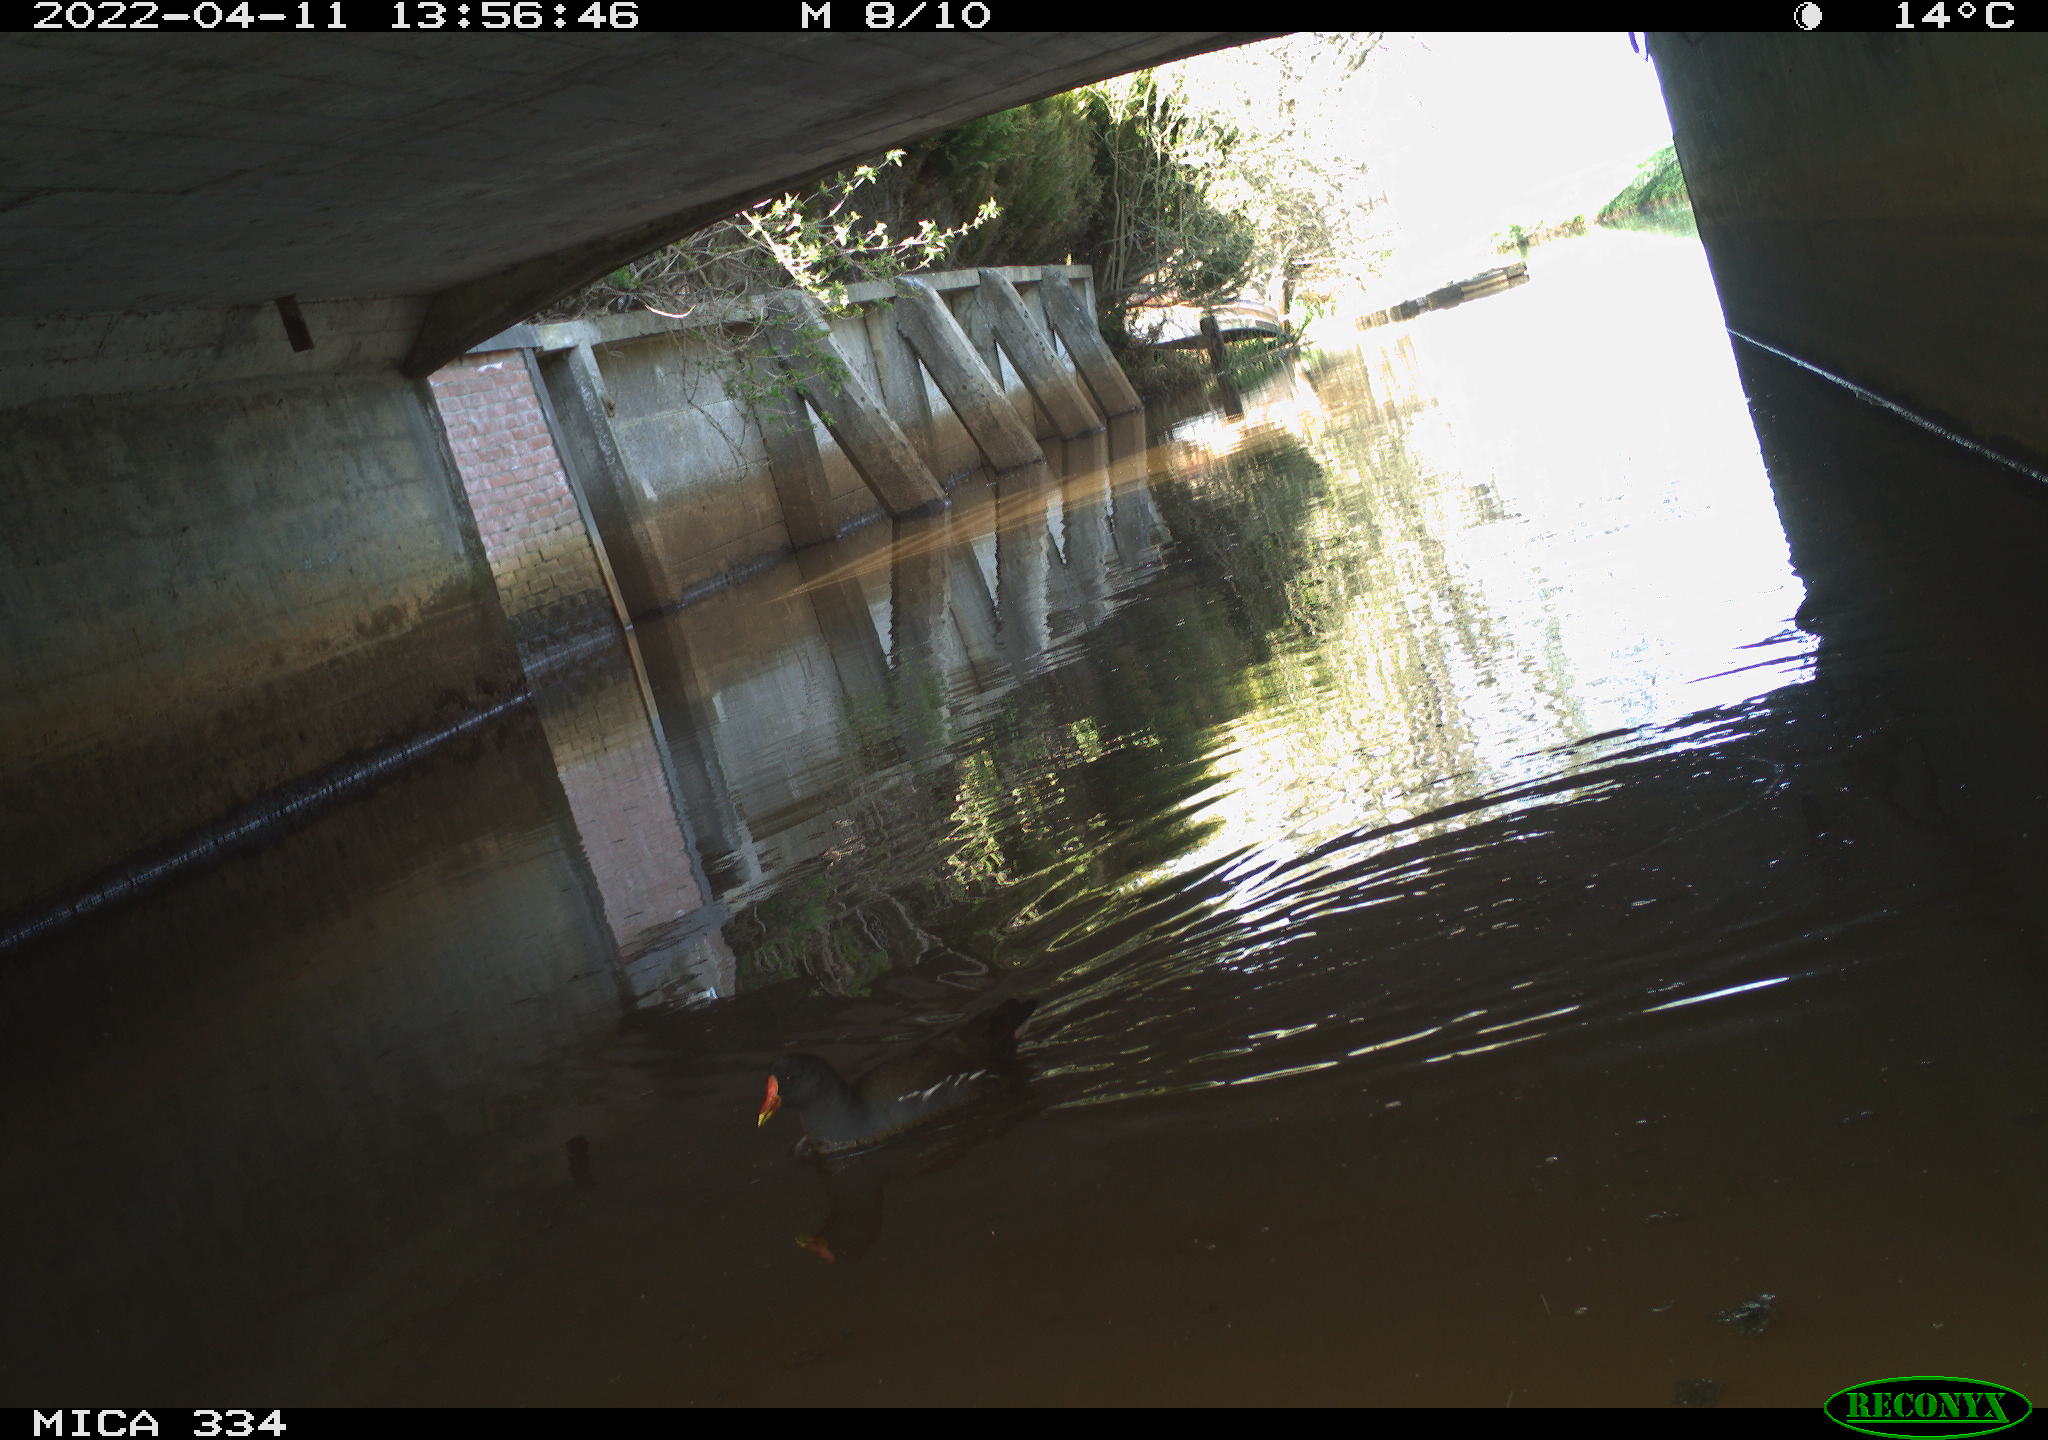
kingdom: Animalia
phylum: Chordata
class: Aves
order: Gruiformes
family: Rallidae
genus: Gallinula
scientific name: Gallinula chloropus
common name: Common moorhen
